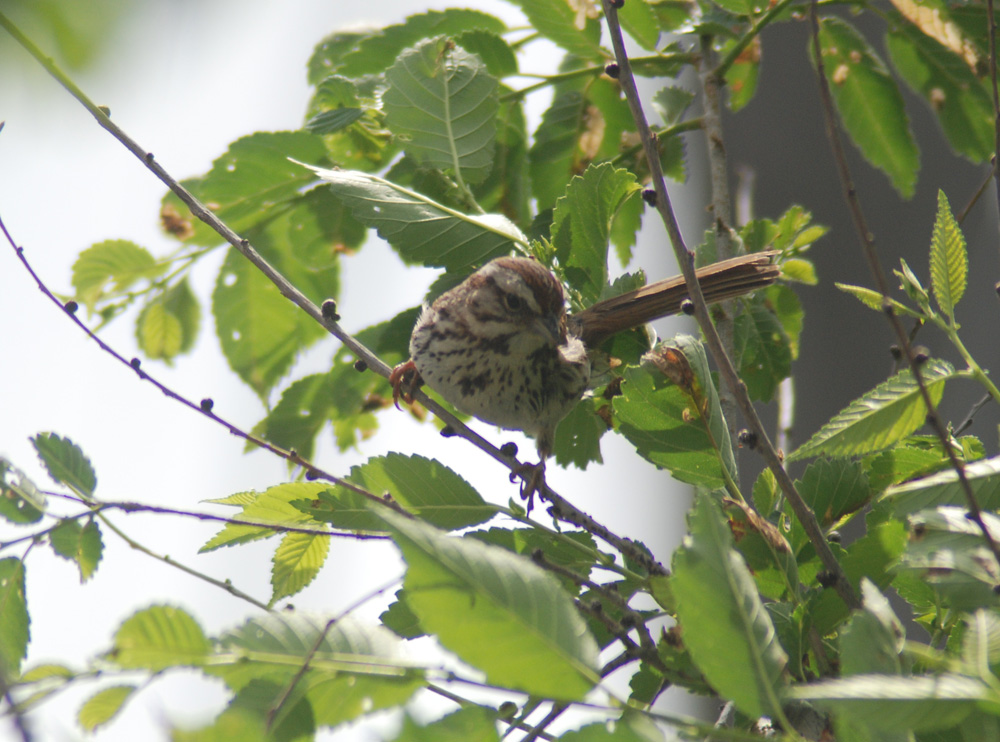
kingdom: Animalia
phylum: Chordata
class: Aves
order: Passeriformes
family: Passerellidae
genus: Melospiza
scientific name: Melospiza melodia
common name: Song sparrow
